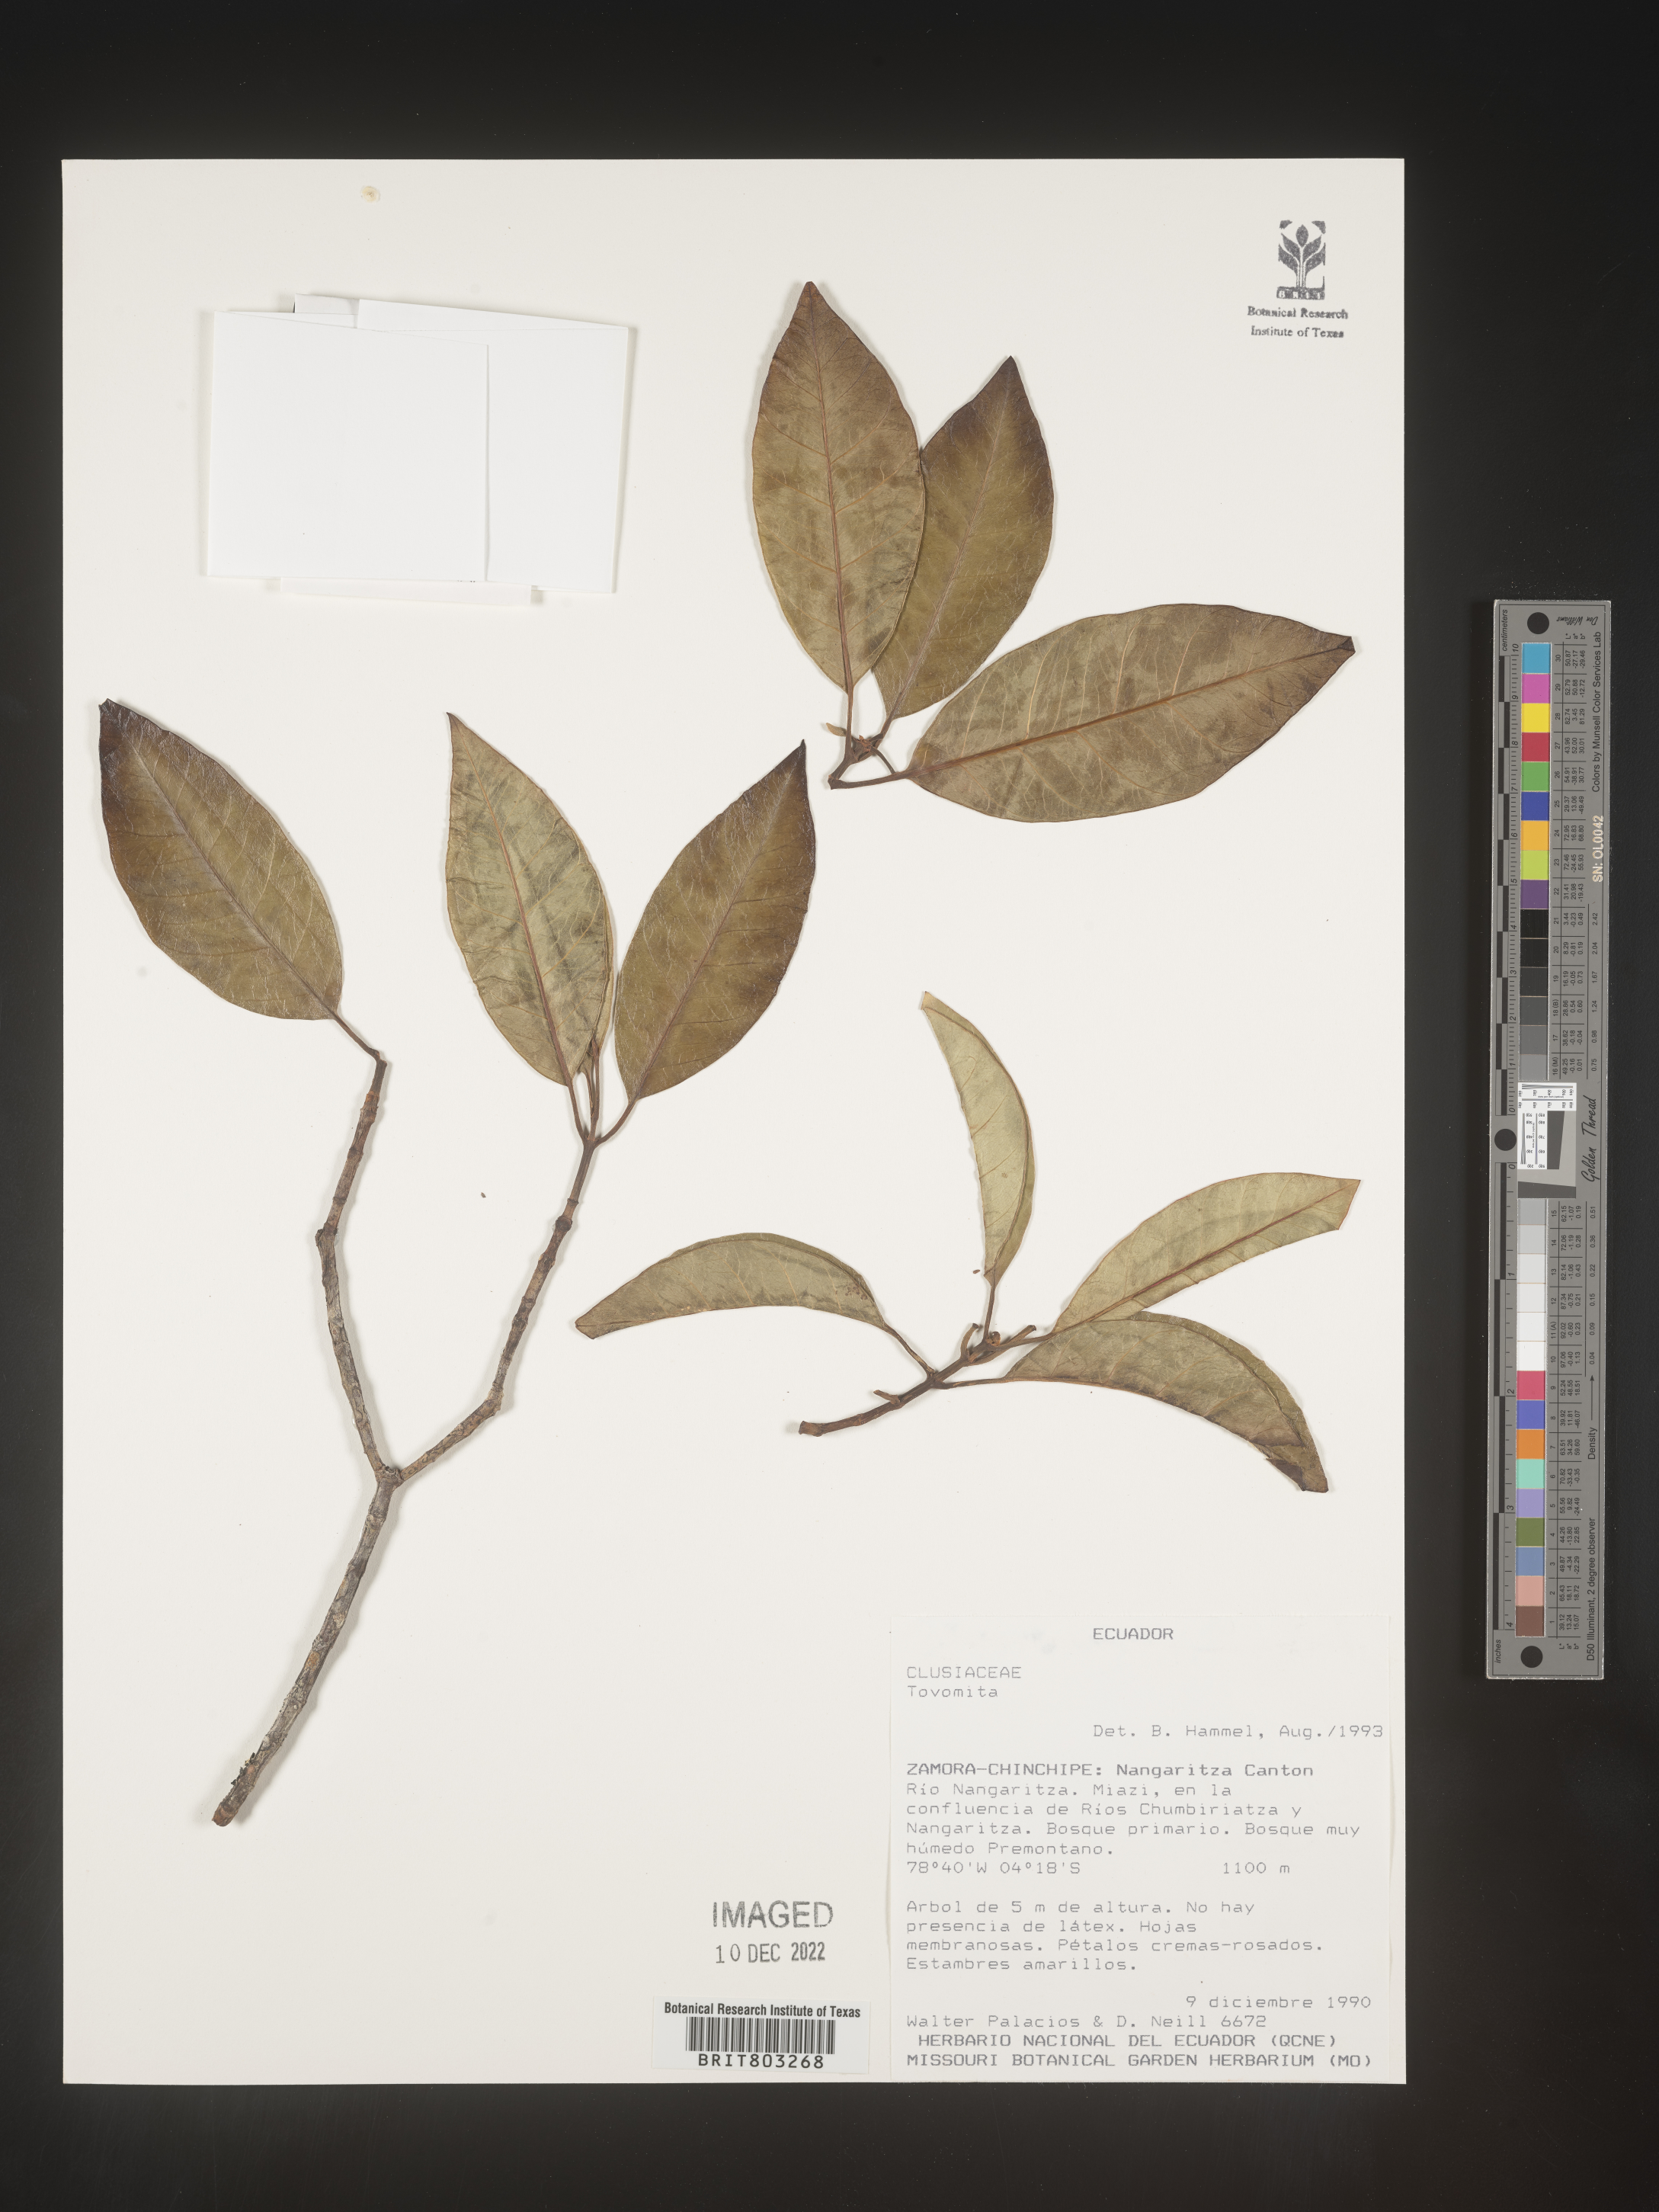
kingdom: Plantae
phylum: Tracheophyta
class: Magnoliopsida
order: Malpighiales
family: Clusiaceae
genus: Tovomita
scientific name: Tovomita
